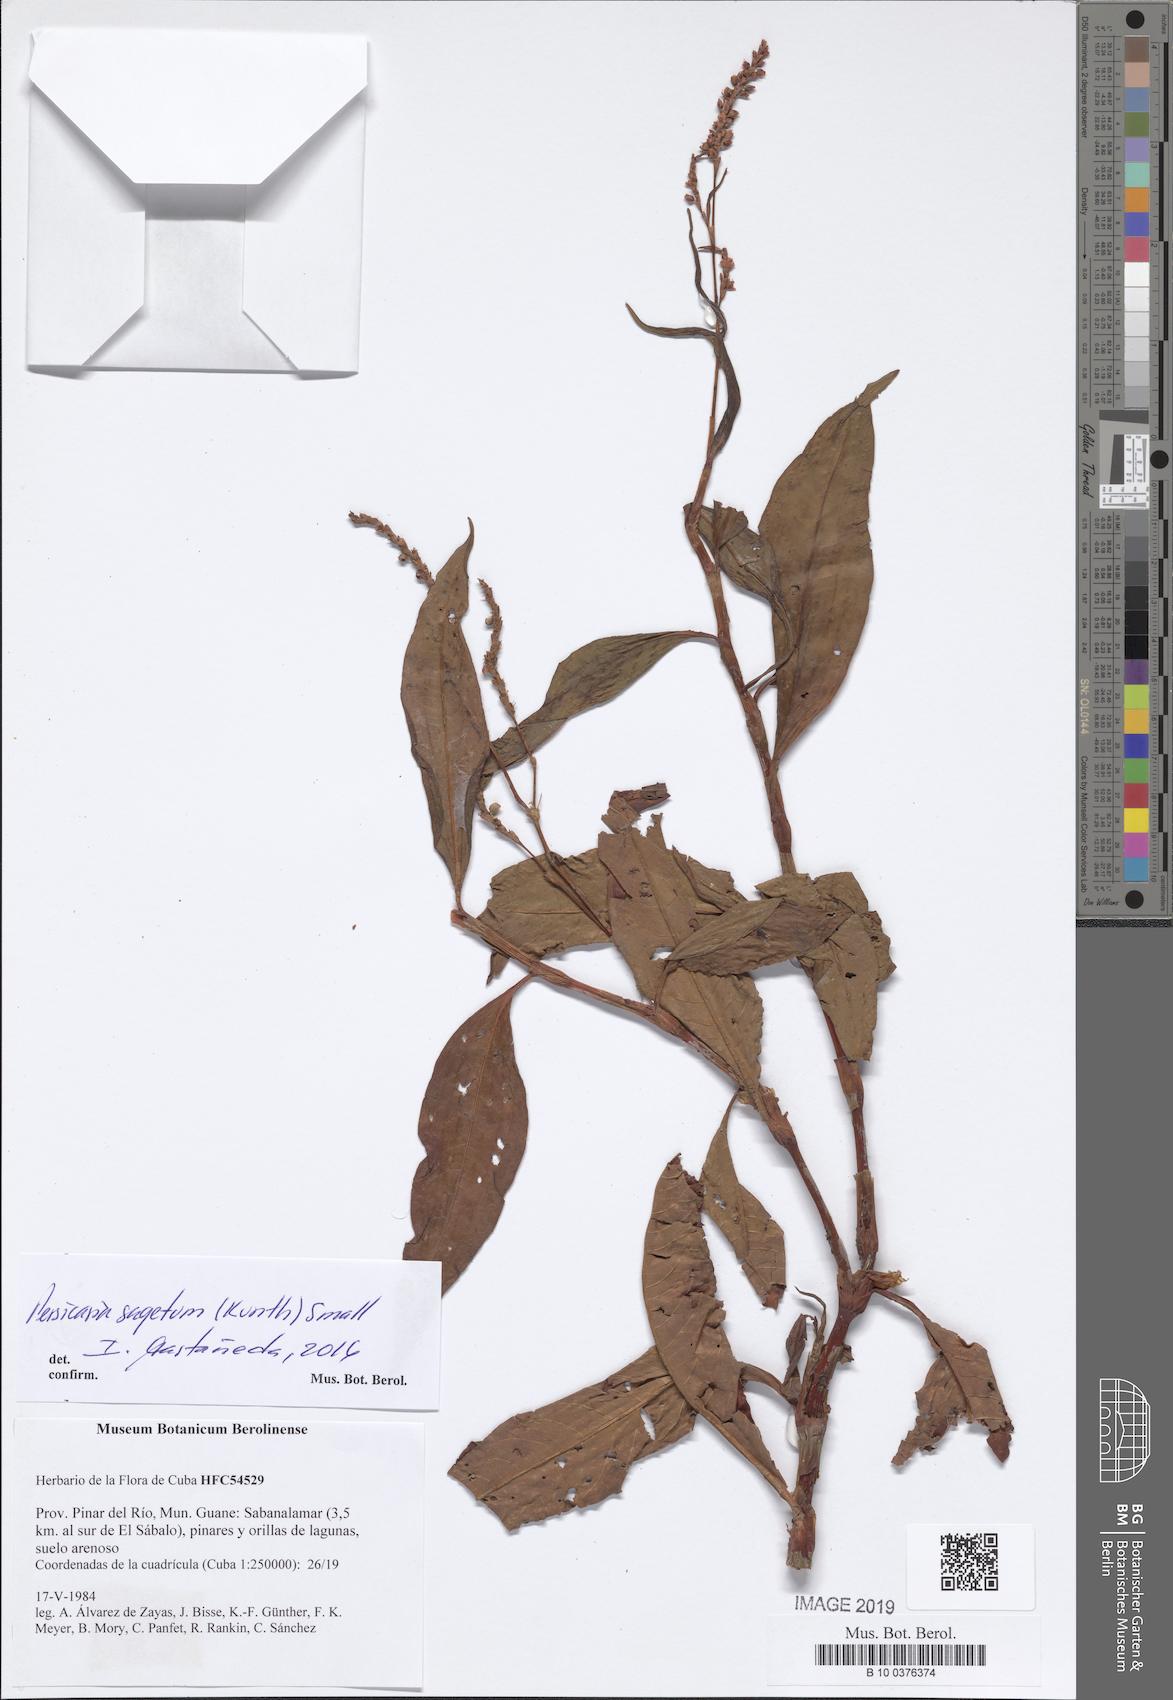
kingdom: Plantae
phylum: Tracheophyta
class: Magnoliopsida
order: Caryophyllales
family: Polygonaceae
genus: Persicaria
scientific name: Persicaria segetum
